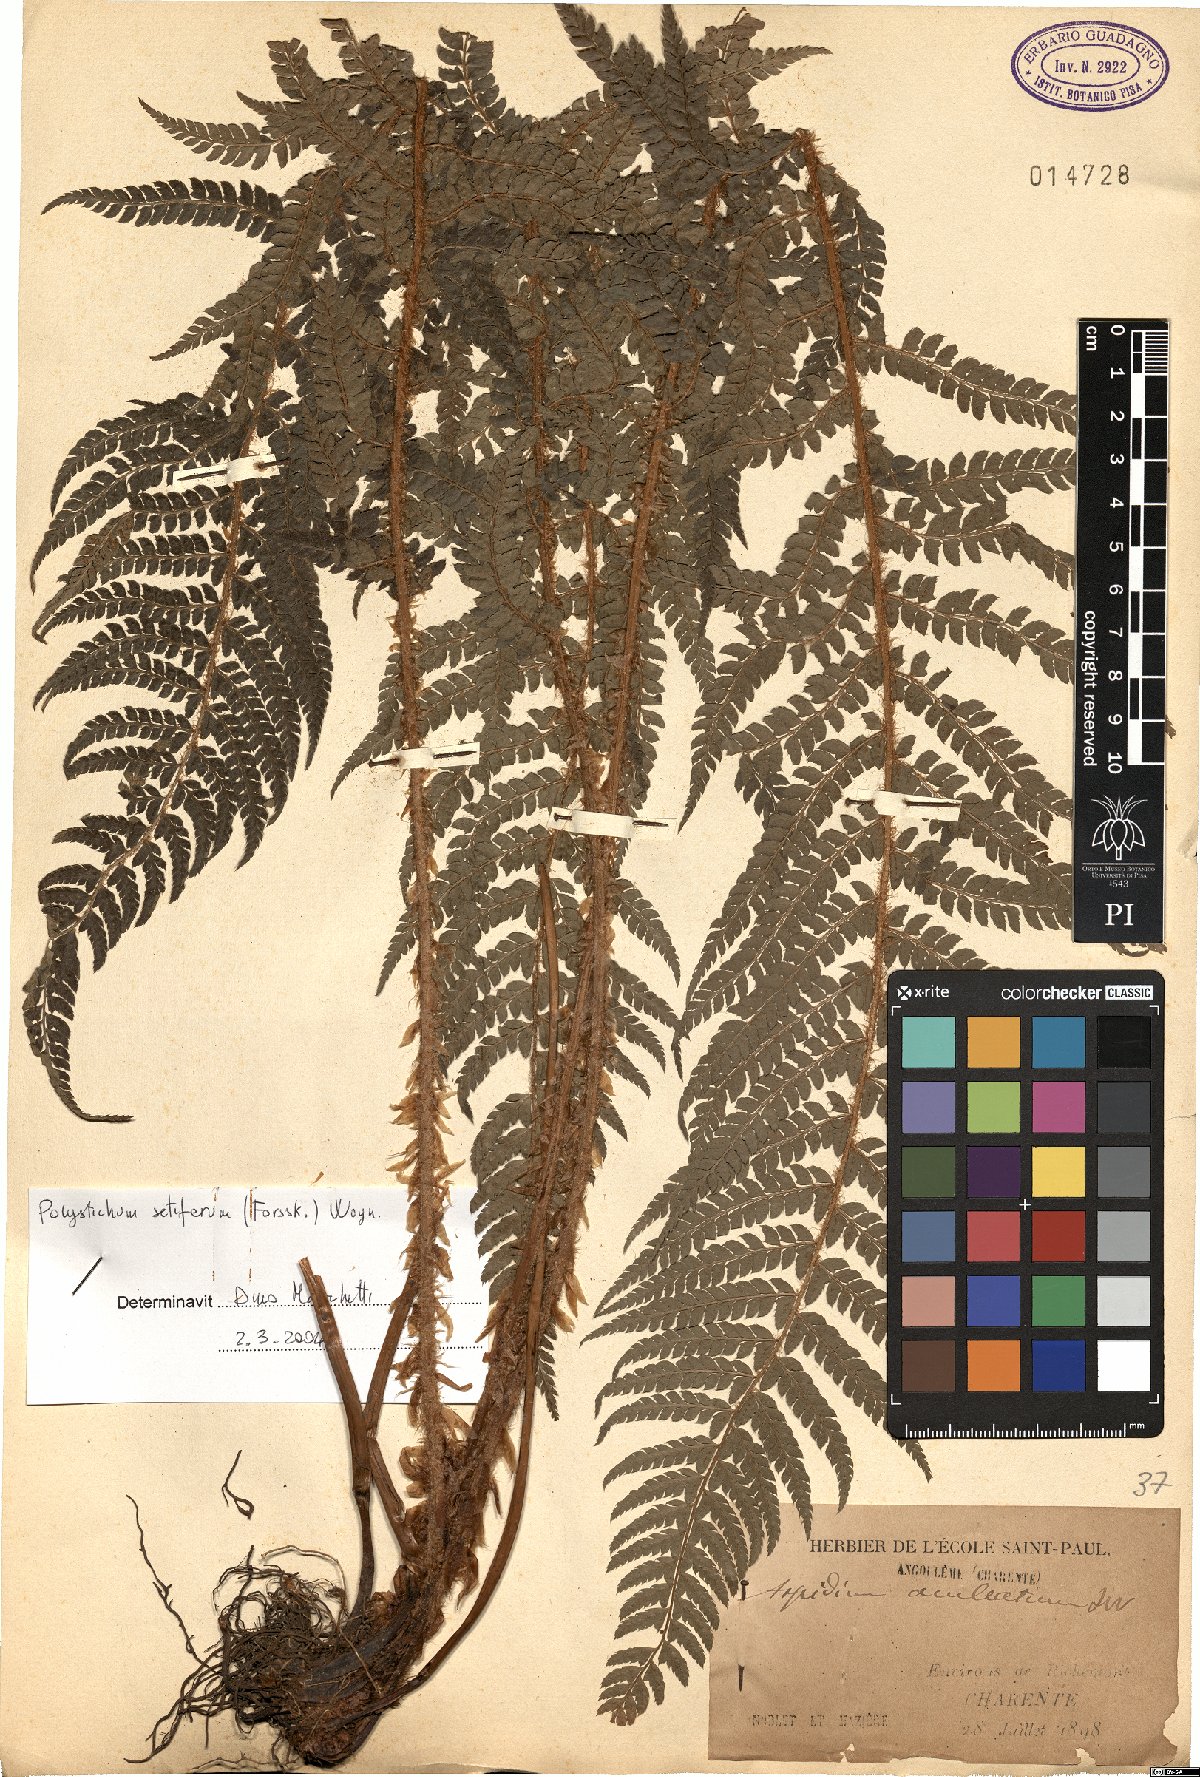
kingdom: Plantae
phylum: Tracheophyta
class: Polypodiopsida
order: Polypodiales
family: Dryopteridaceae
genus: Polystichum
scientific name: Polystichum setiferum
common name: Soft shield-fern
